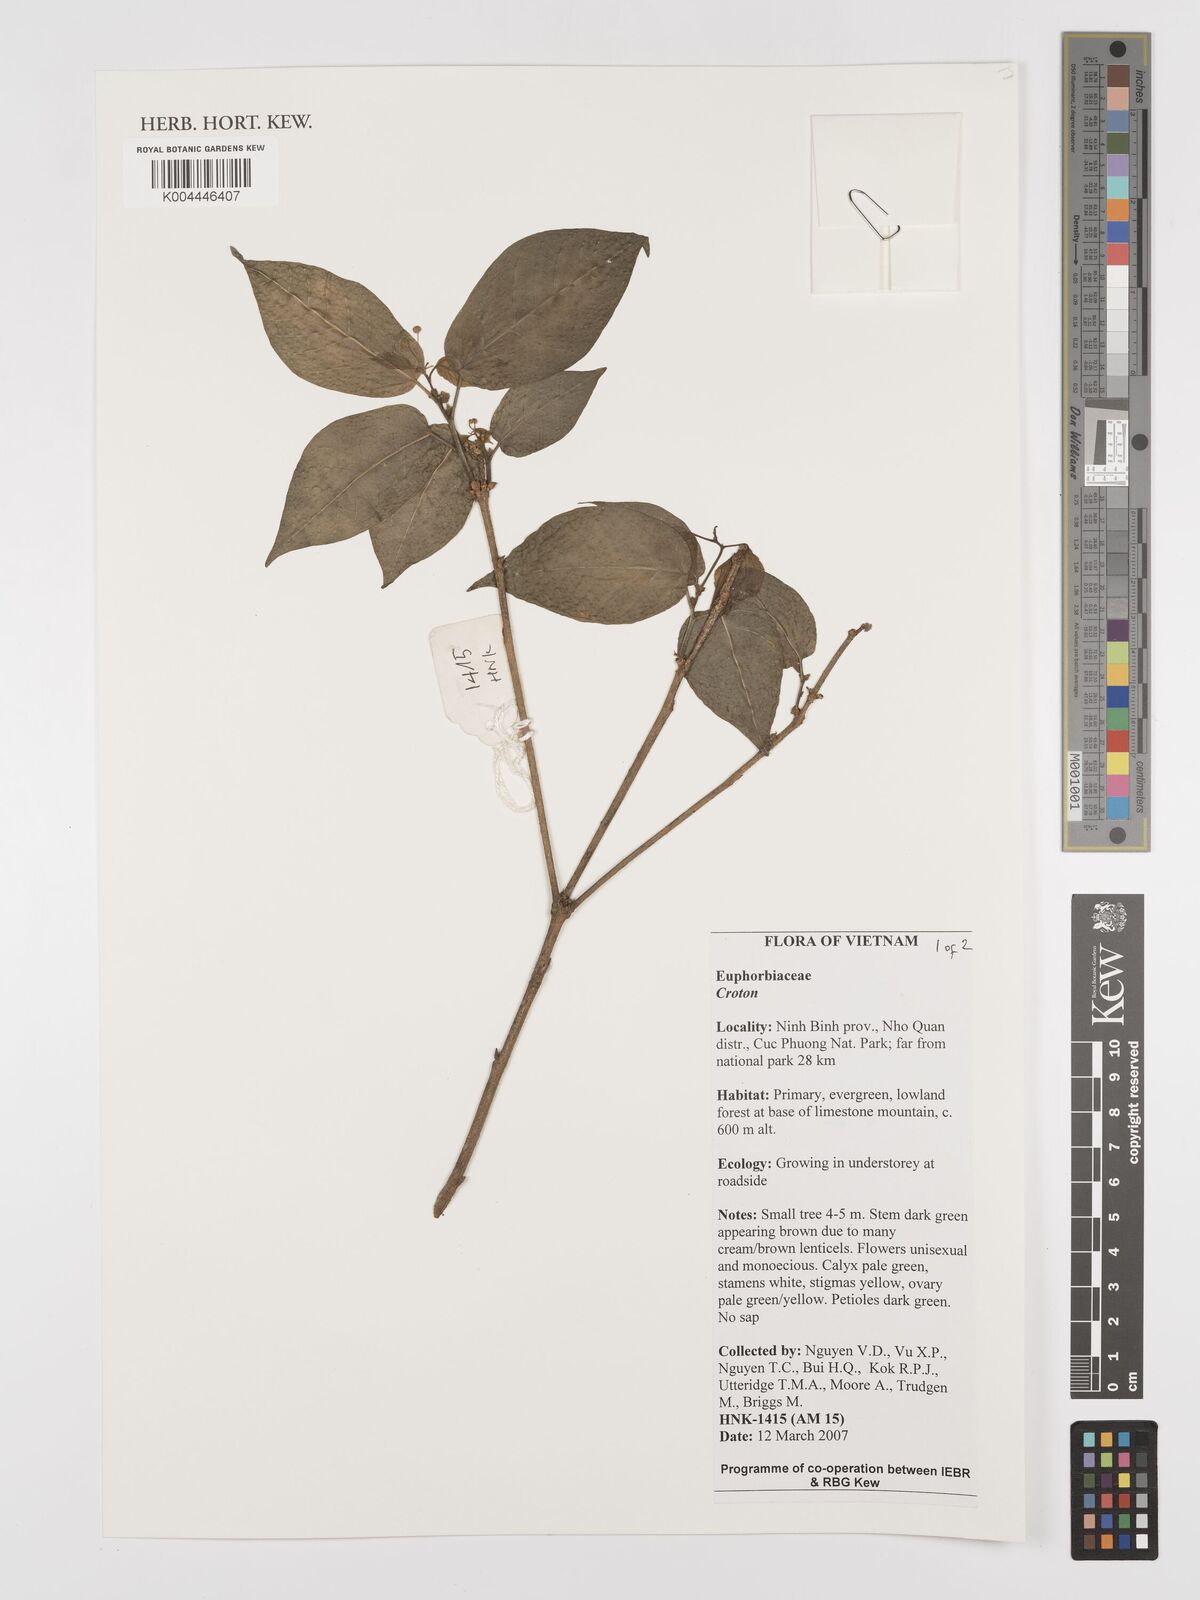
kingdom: Plantae
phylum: Tracheophyta
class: Magnoliopsida
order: Malpighiales
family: Euphorbiaceae
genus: Croton
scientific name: Croton
